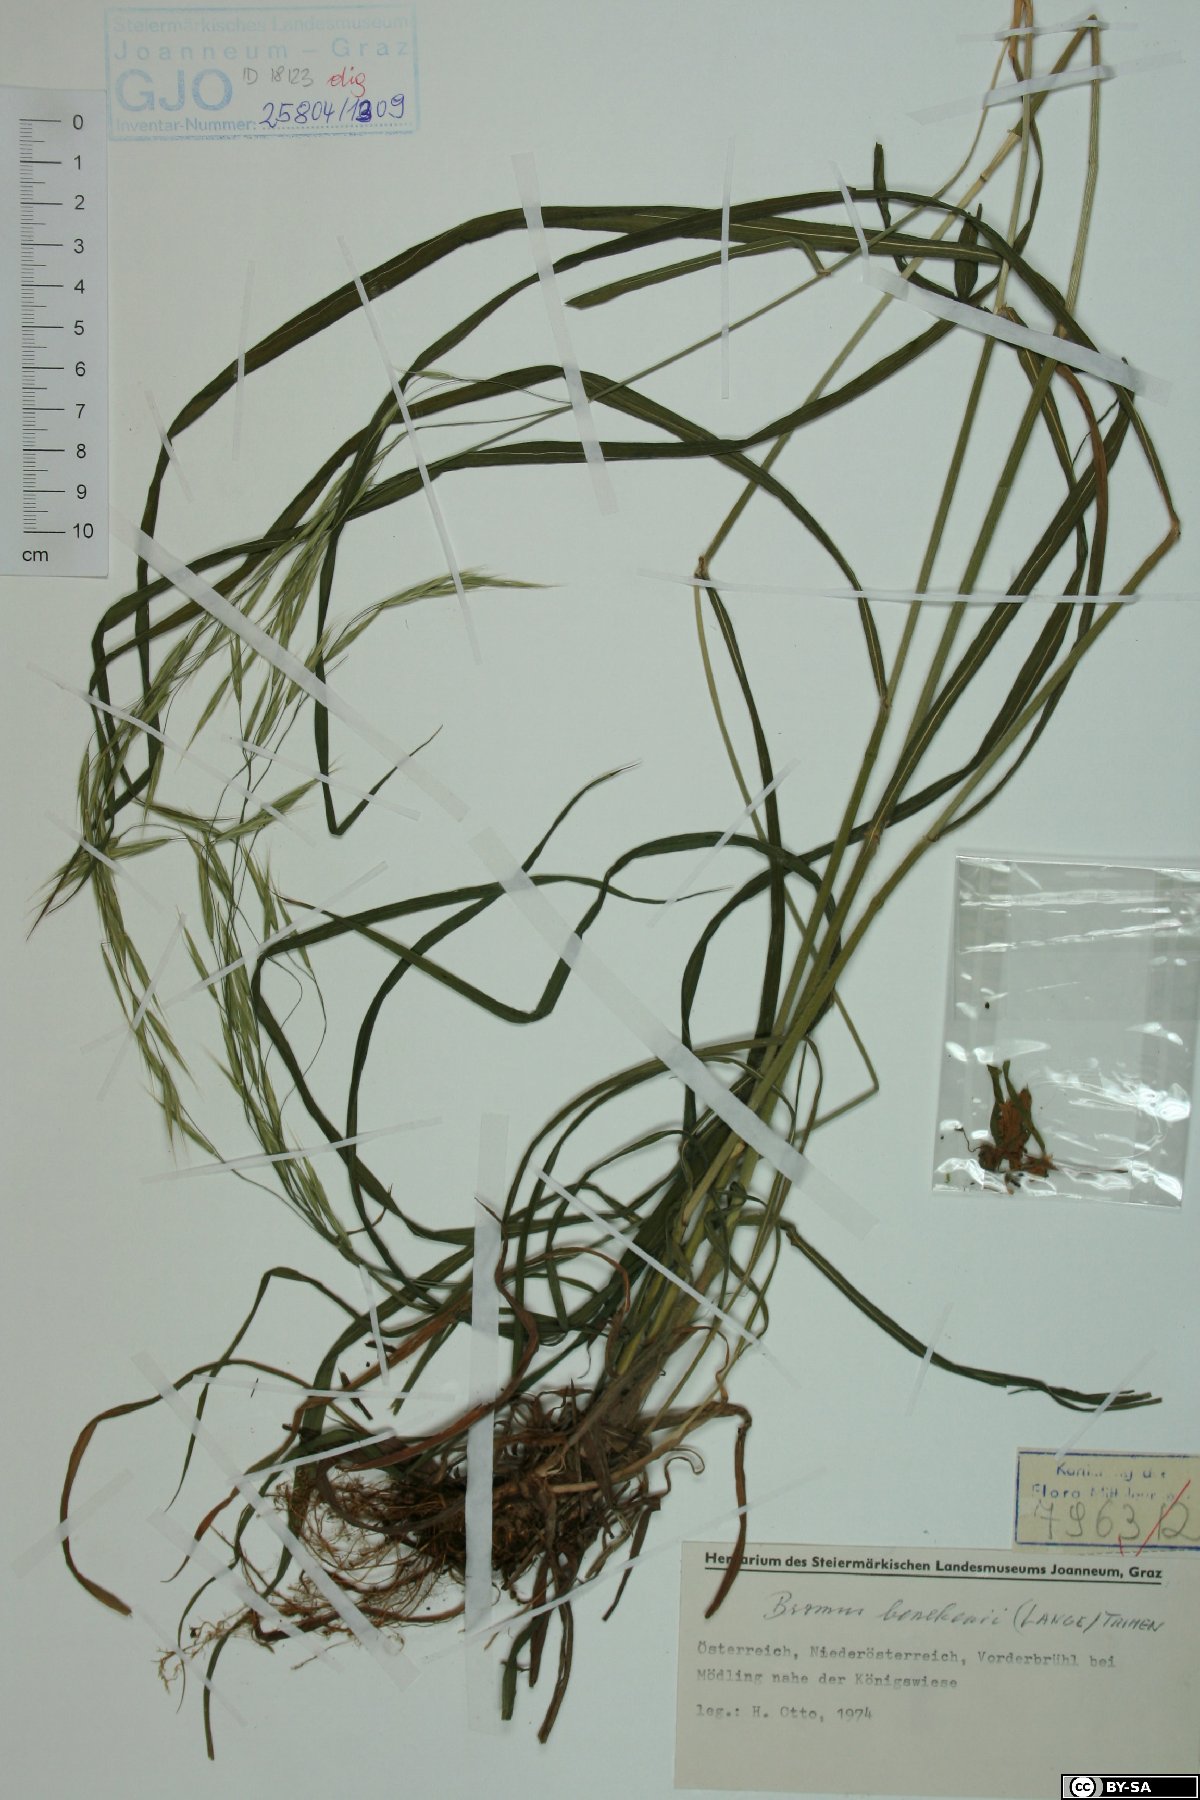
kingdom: Plantae
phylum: Tracheophyta
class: Liliopsida
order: Poales
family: Poaceae
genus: Bromus
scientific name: Bromus benekenii
